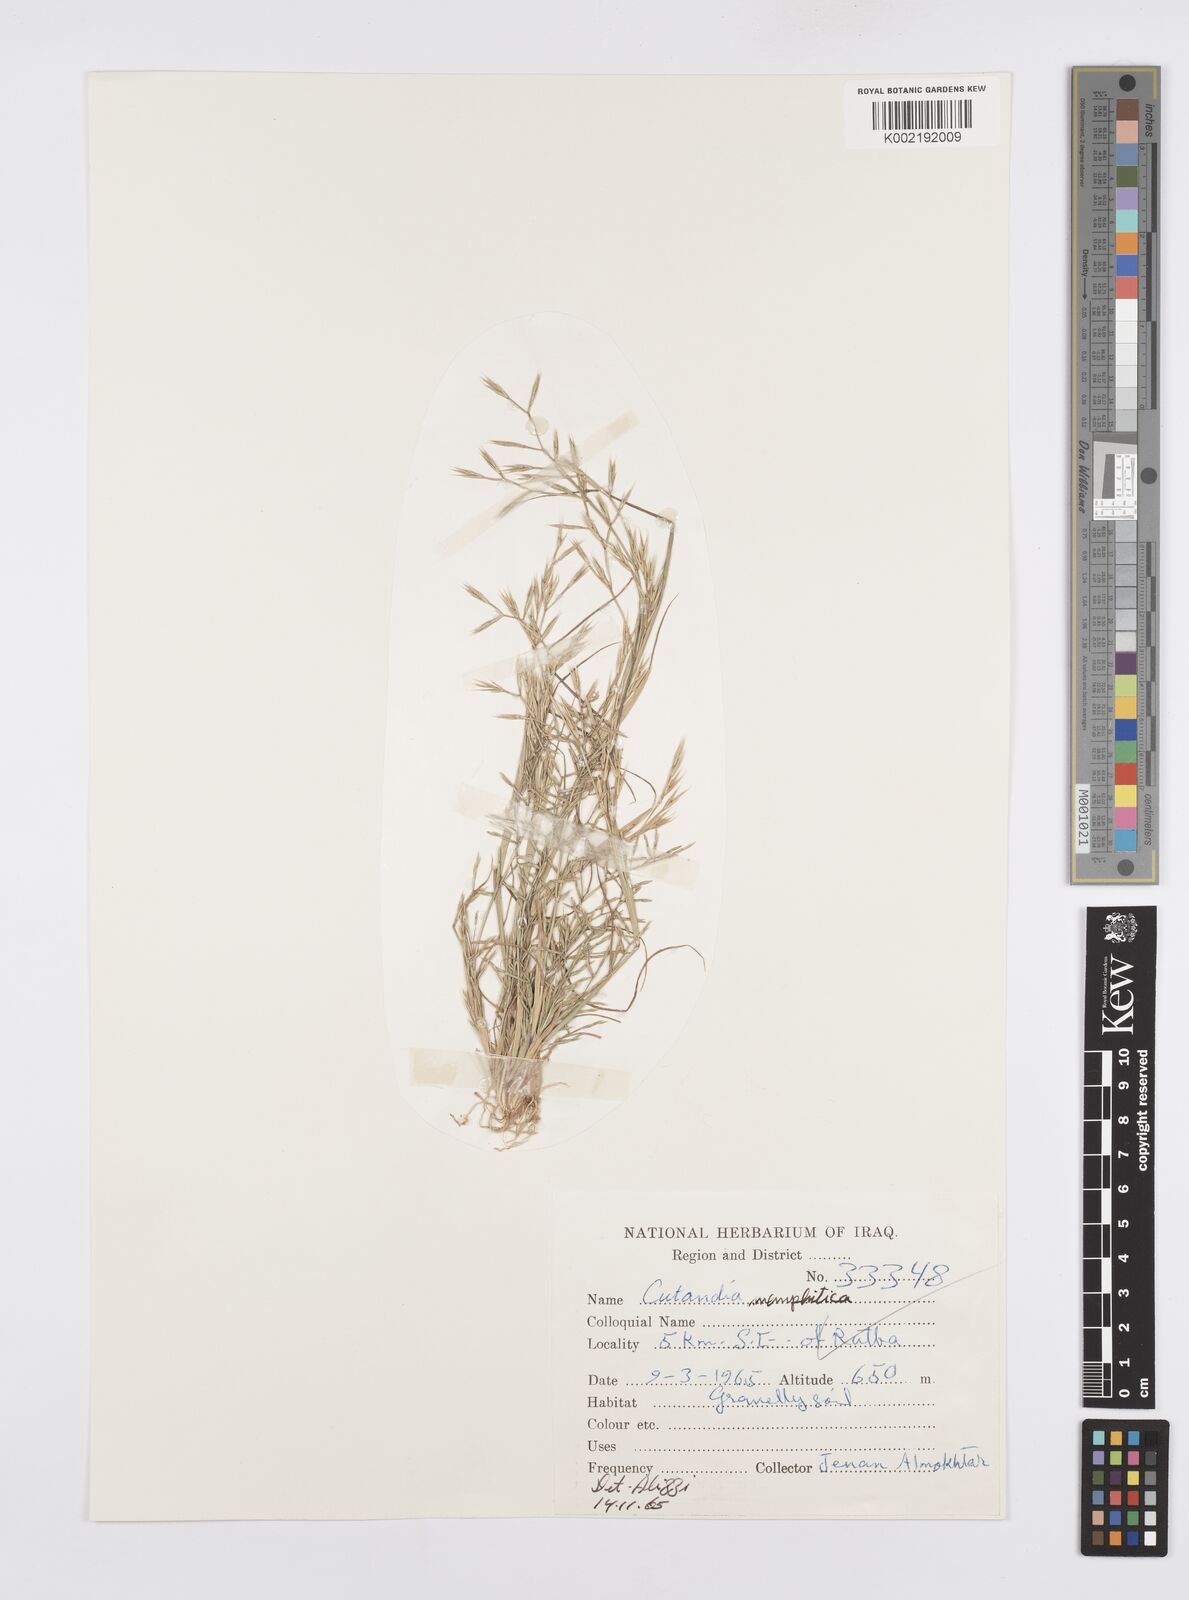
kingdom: Plantae
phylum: Tracheophyta
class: Liliopsida
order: Poales
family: Poaceae
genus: Cutandia
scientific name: Cutandia memphitica
